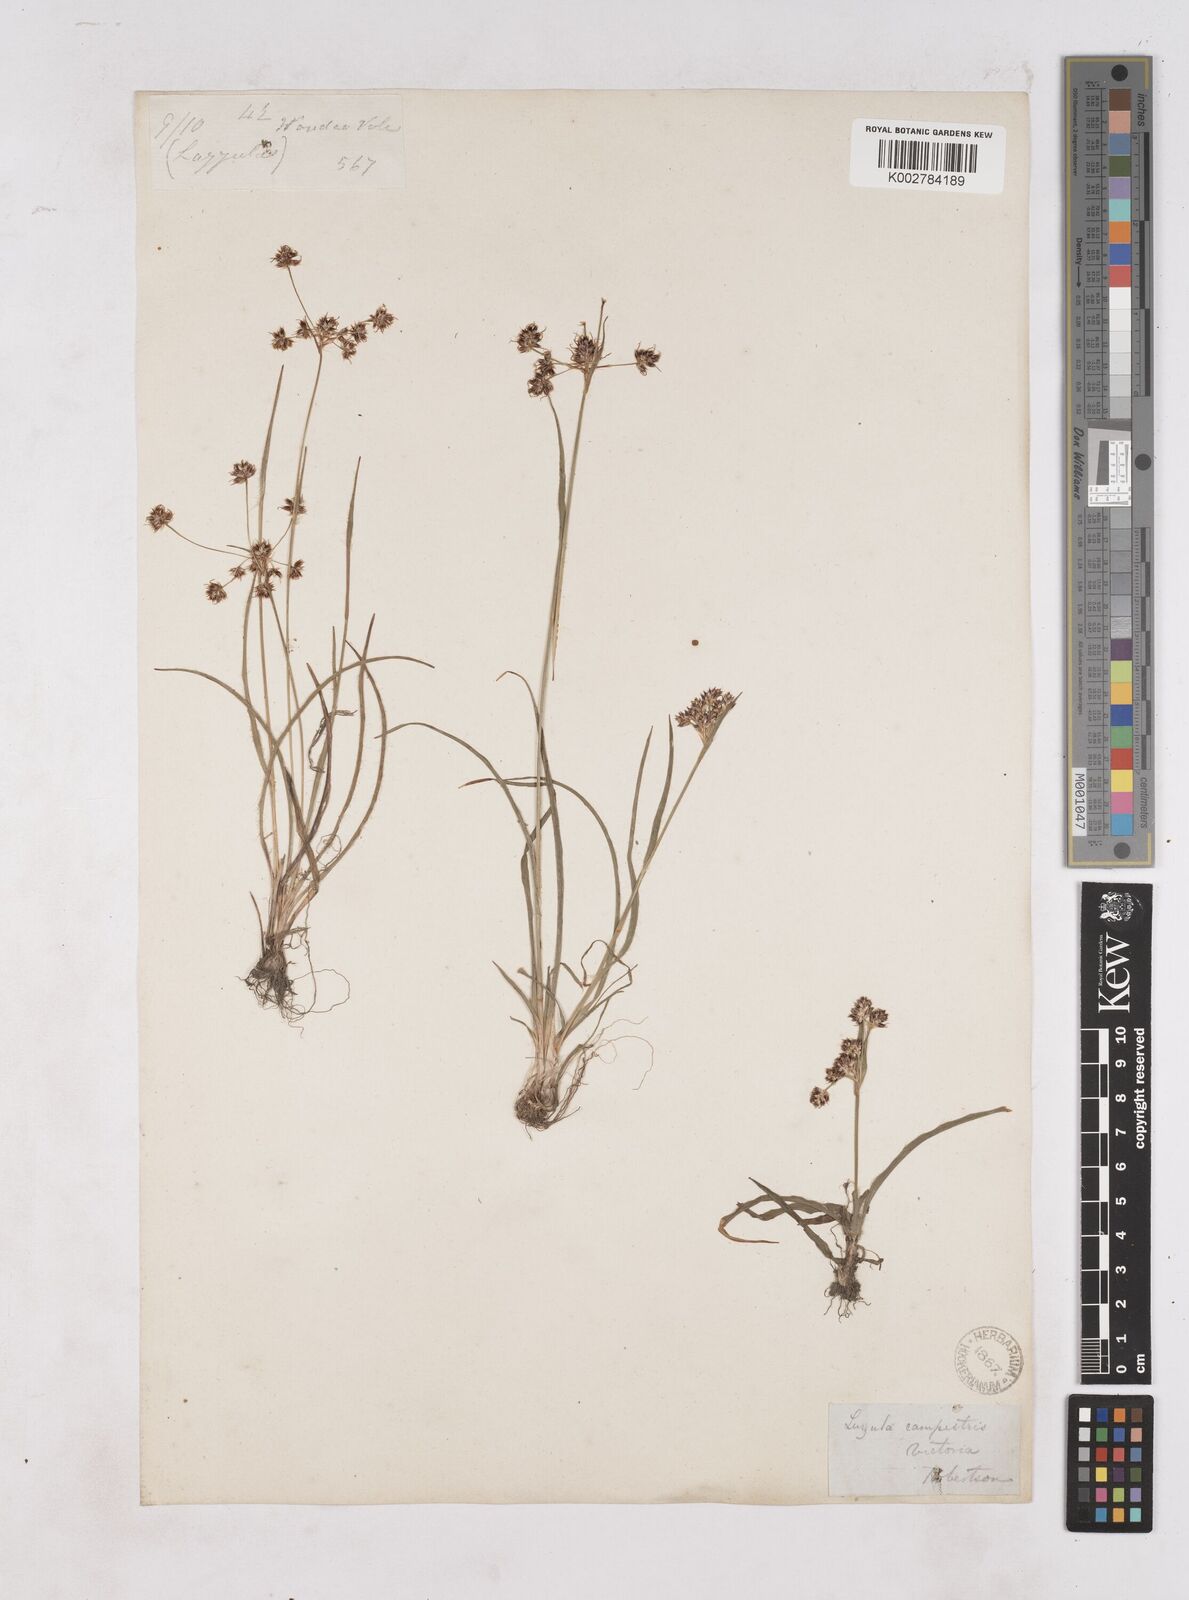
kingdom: Plantae
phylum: Tracheophyta
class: Liliopsida
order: Poales
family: Juncaceae
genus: Luzula
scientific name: Luzula campestris
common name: Field wood-rush
